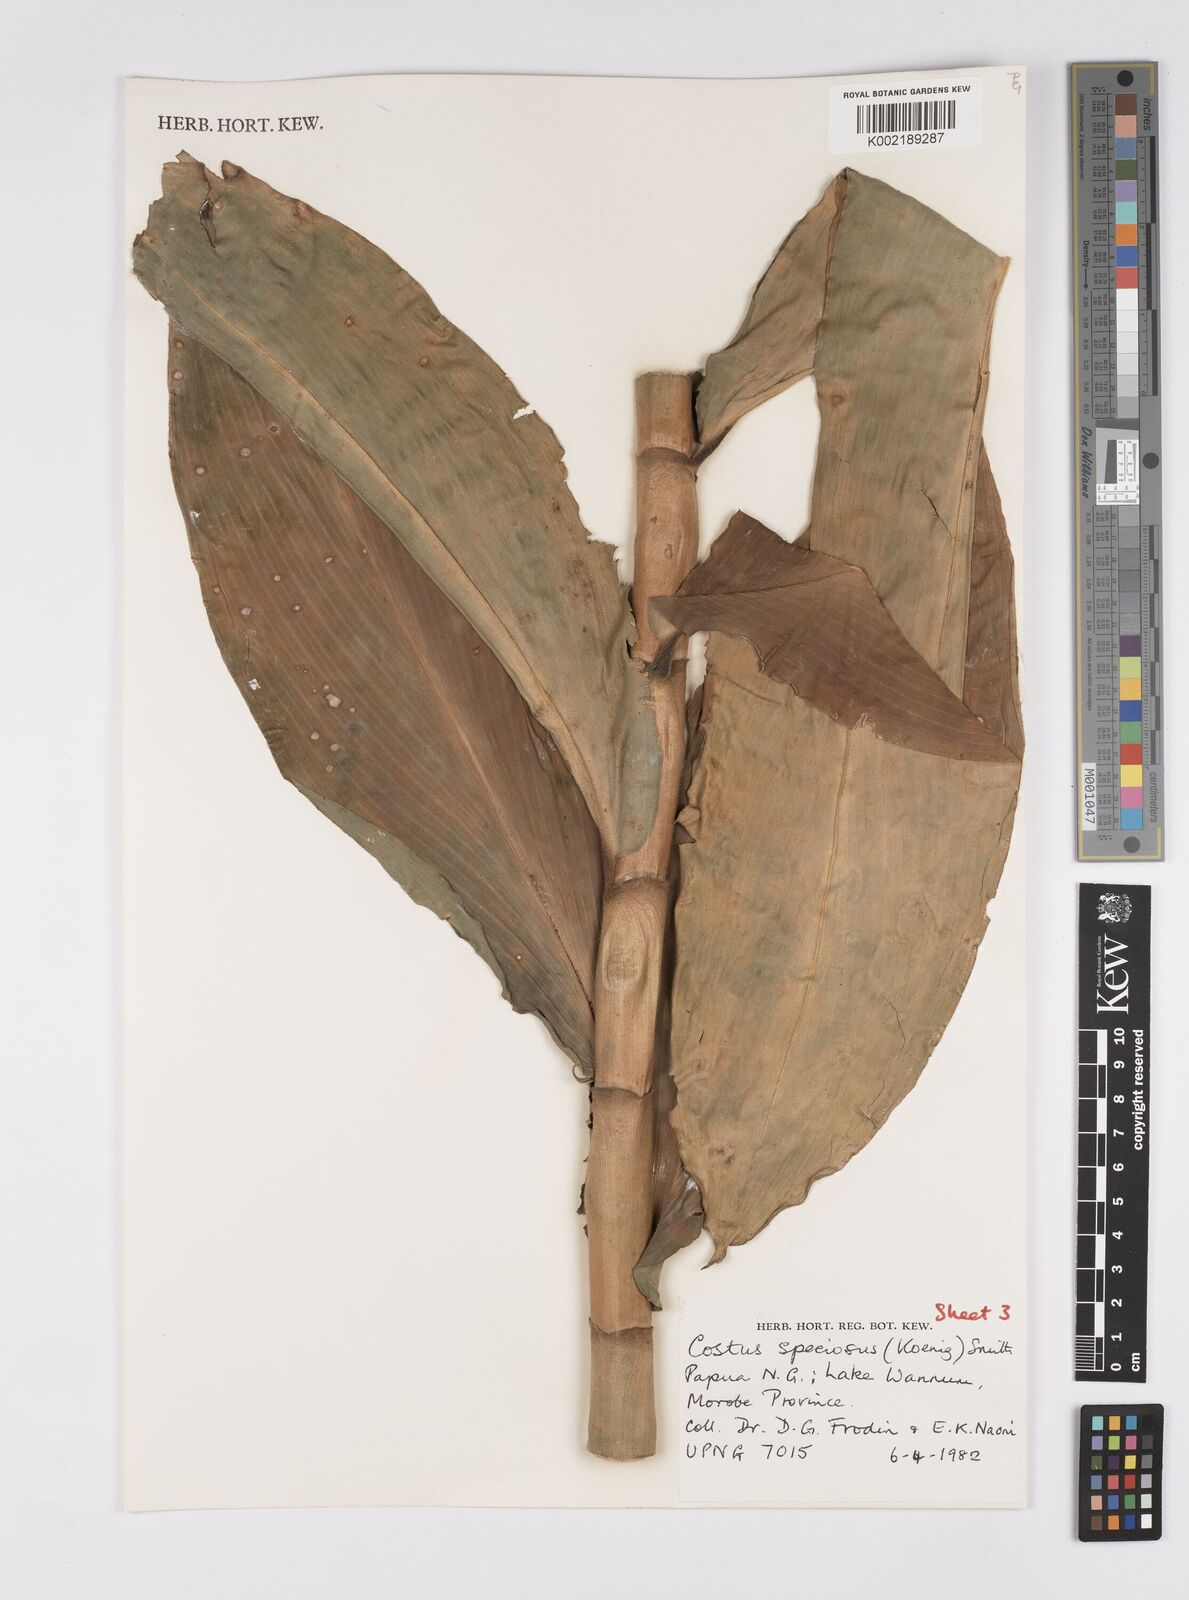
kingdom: Plantae
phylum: Tracheophyta
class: Liliopsida
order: Zingiberales
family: Costaceae
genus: Hellenia
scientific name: Hellenia speciosa
